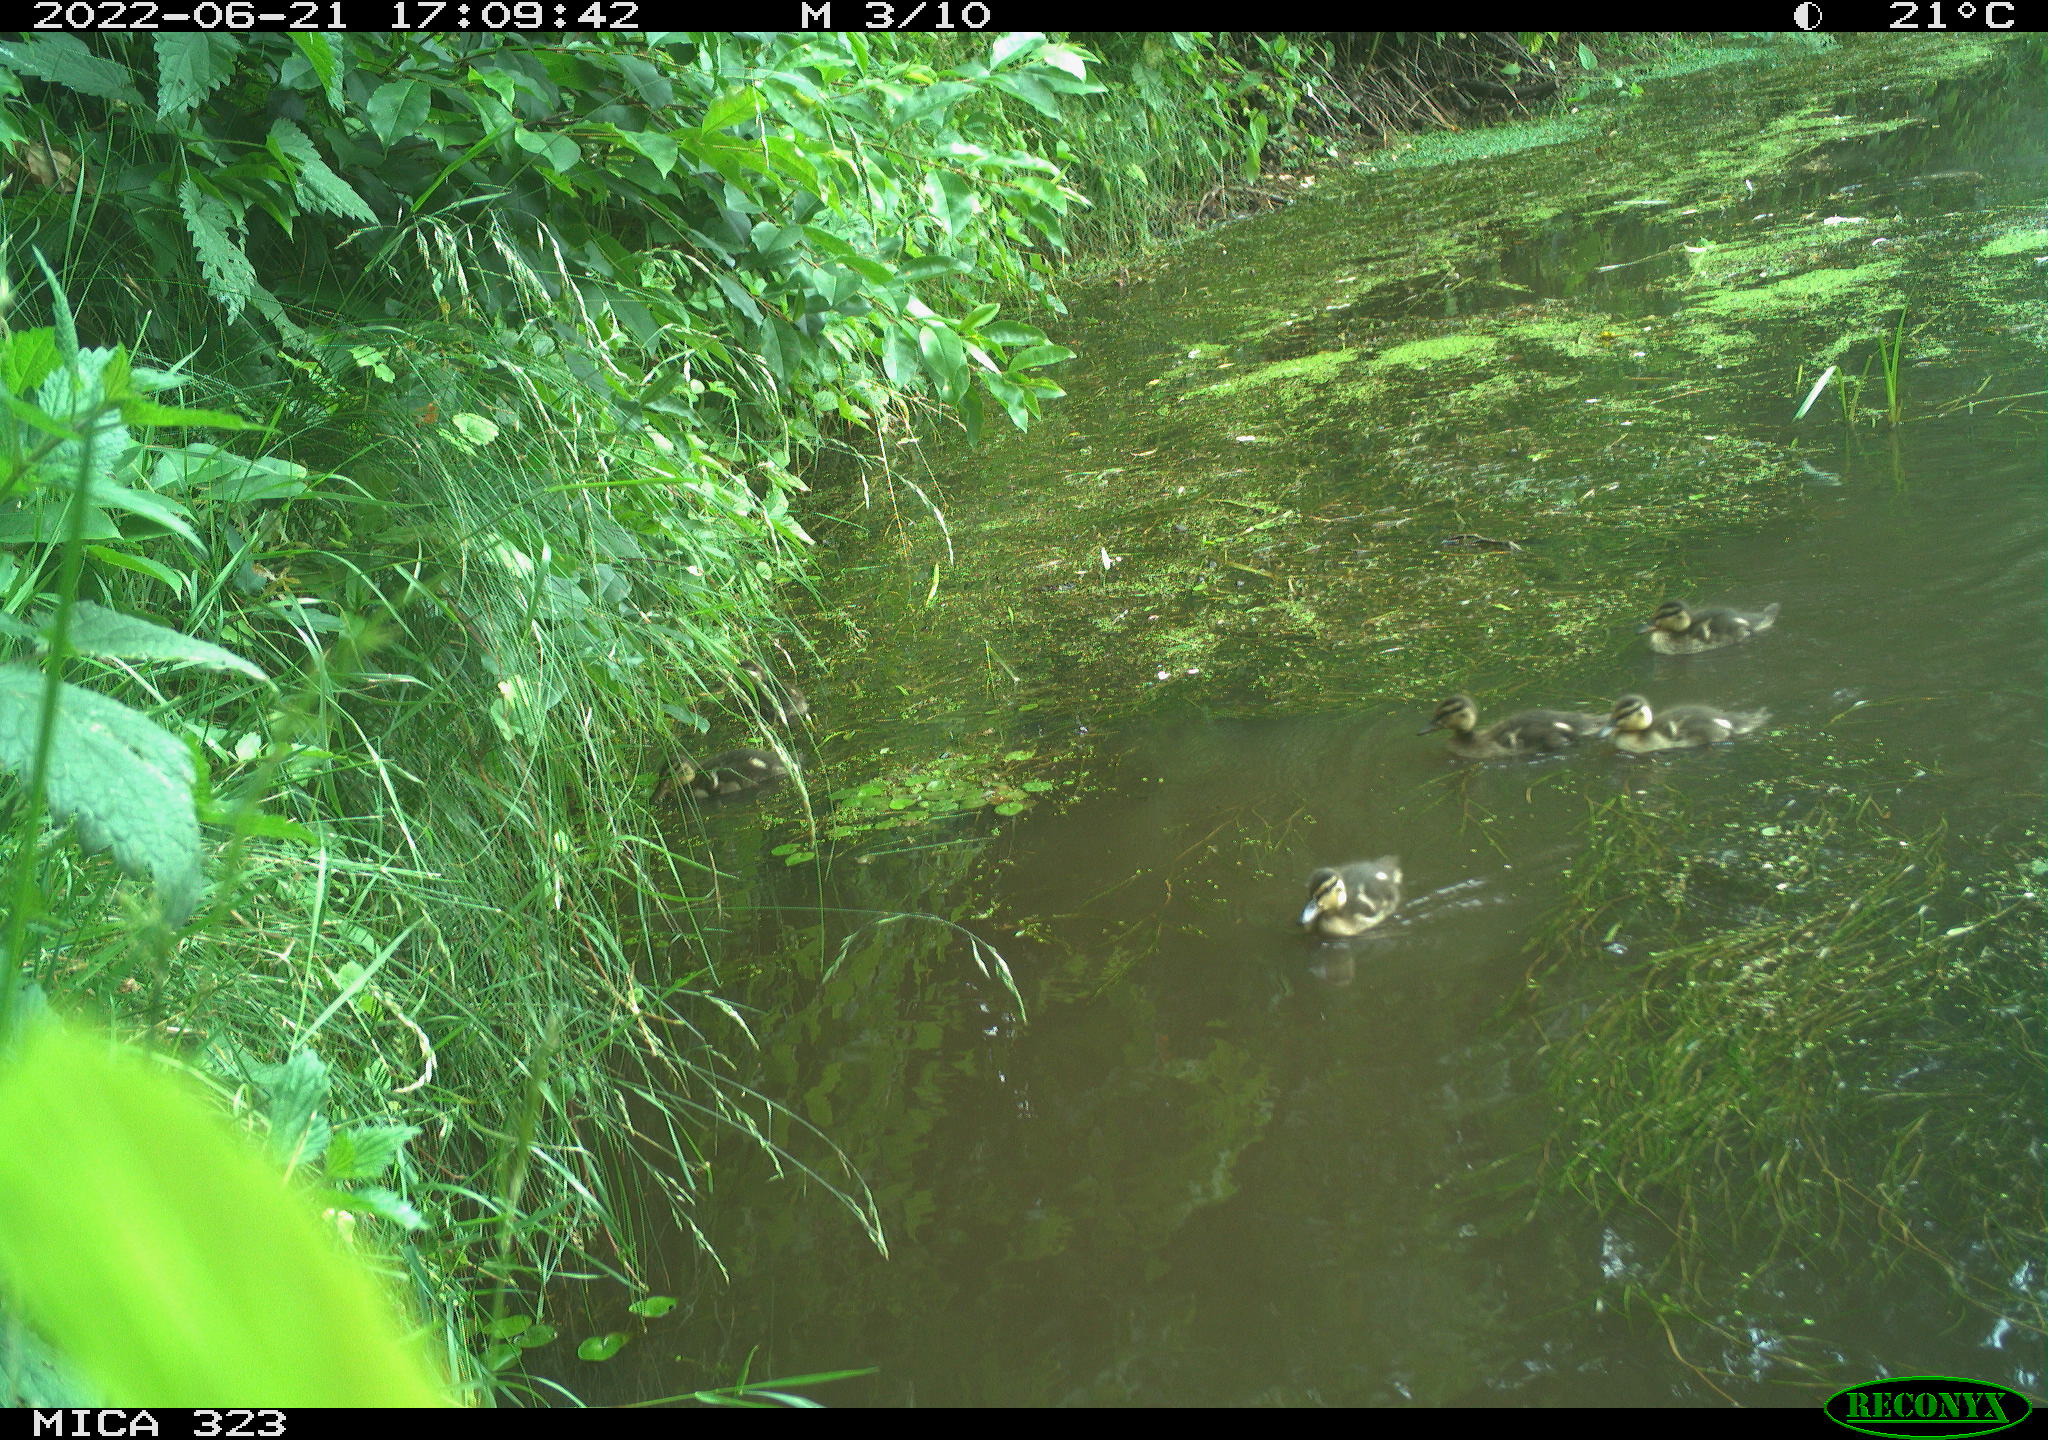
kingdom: Animalia
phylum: Chordata
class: Aves
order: Anseriformes
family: Anatidae
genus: Anas
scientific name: Anas platyrhynchos
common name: Mallard
